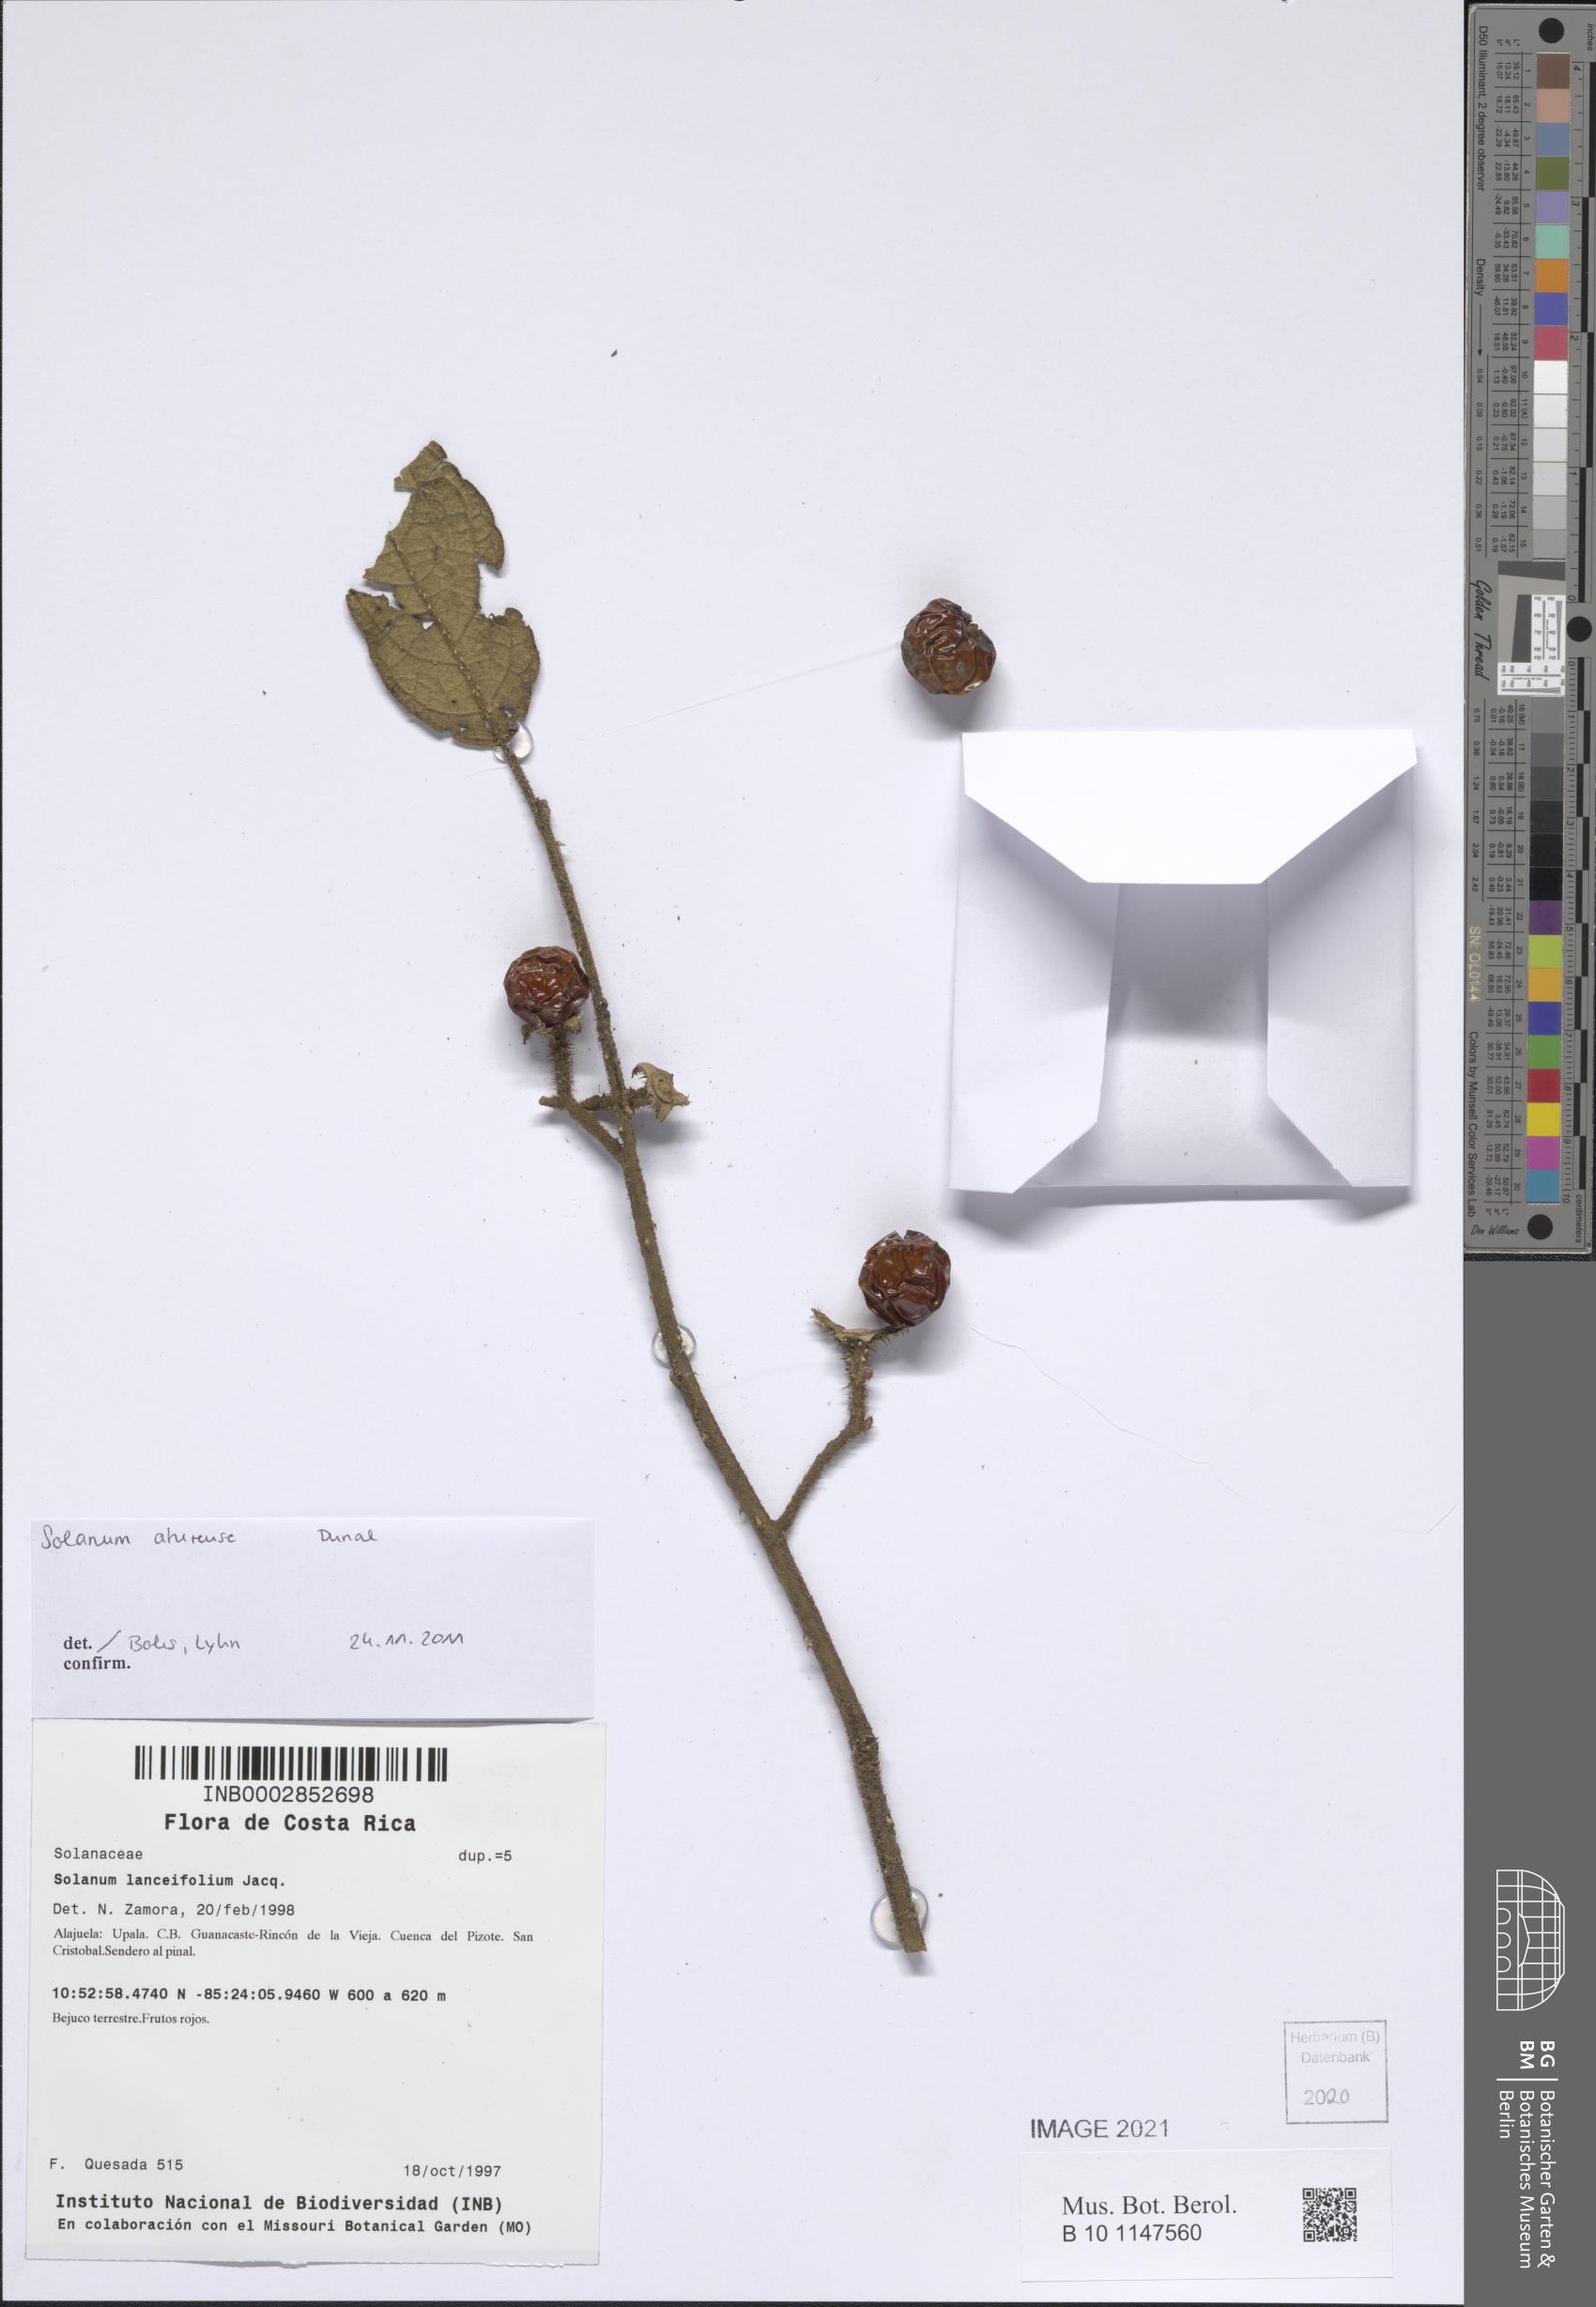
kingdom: Plantae
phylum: Tracheophyta
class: Magnoliopsida
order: Solanales
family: Solanaceae
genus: Solanum
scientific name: Solanum aturense
